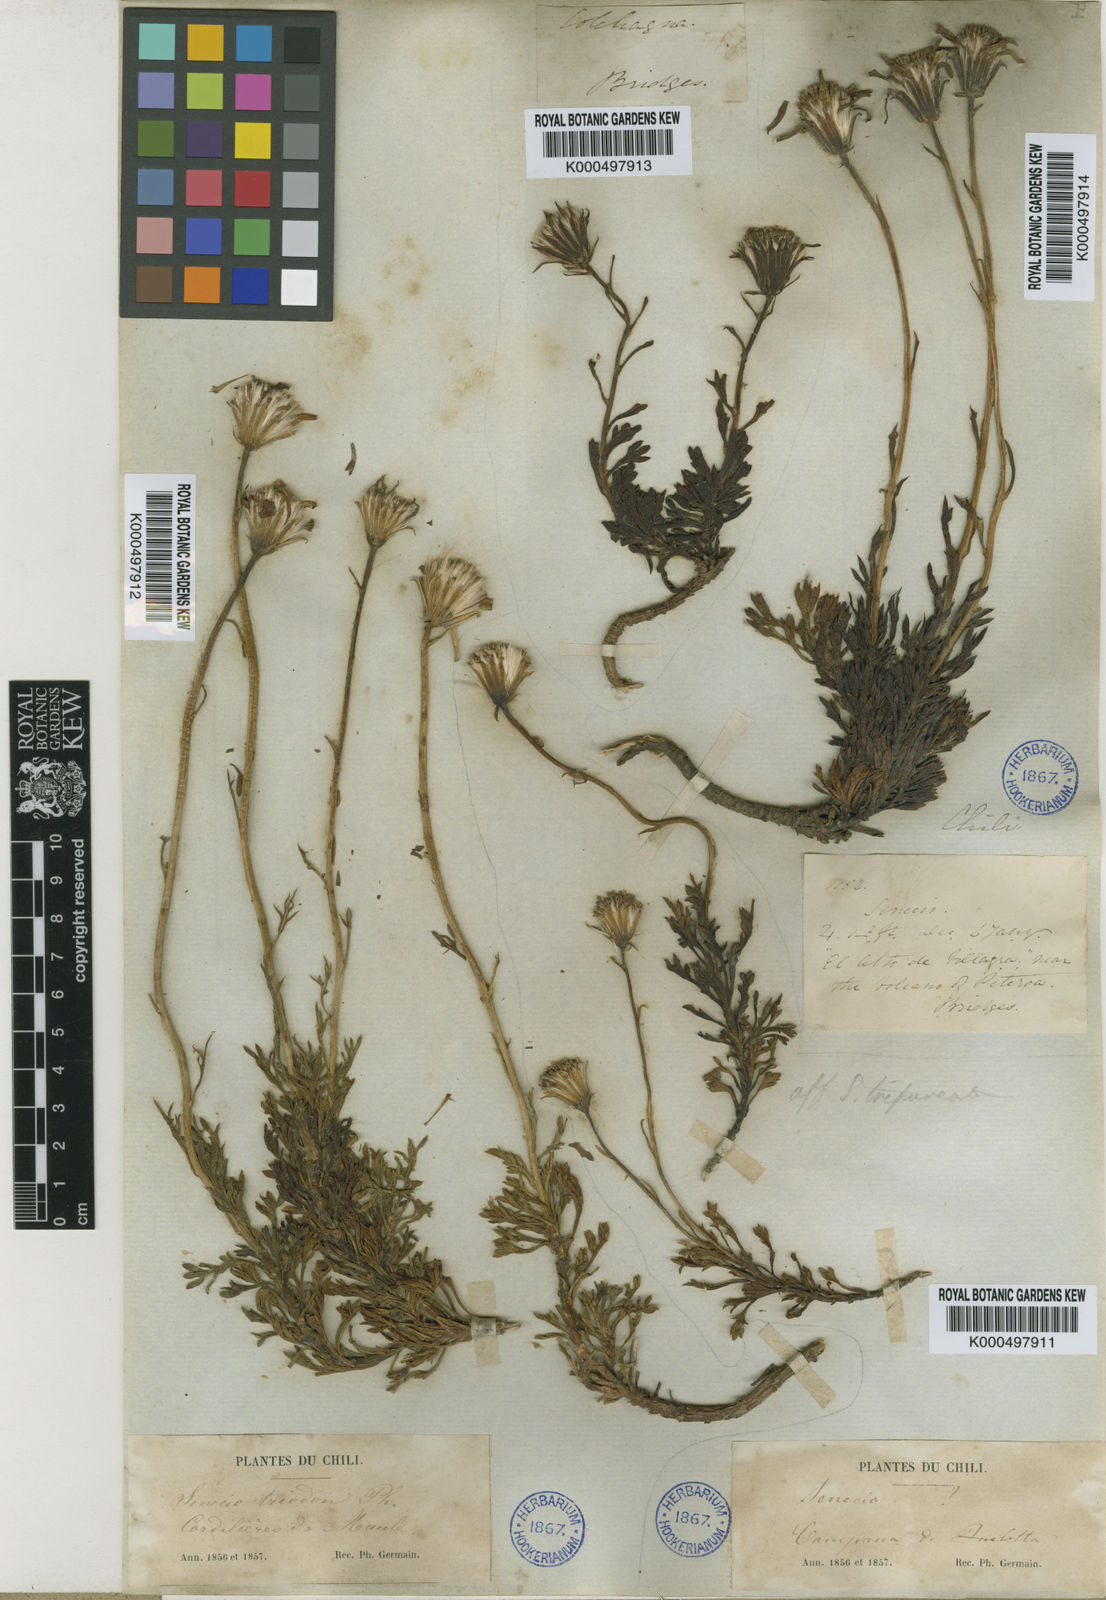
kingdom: Plantae
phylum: Tracheophyta
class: Magnoliopsida
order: Asterales
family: Asteraceae
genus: Senecio
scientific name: Senecio triodon
